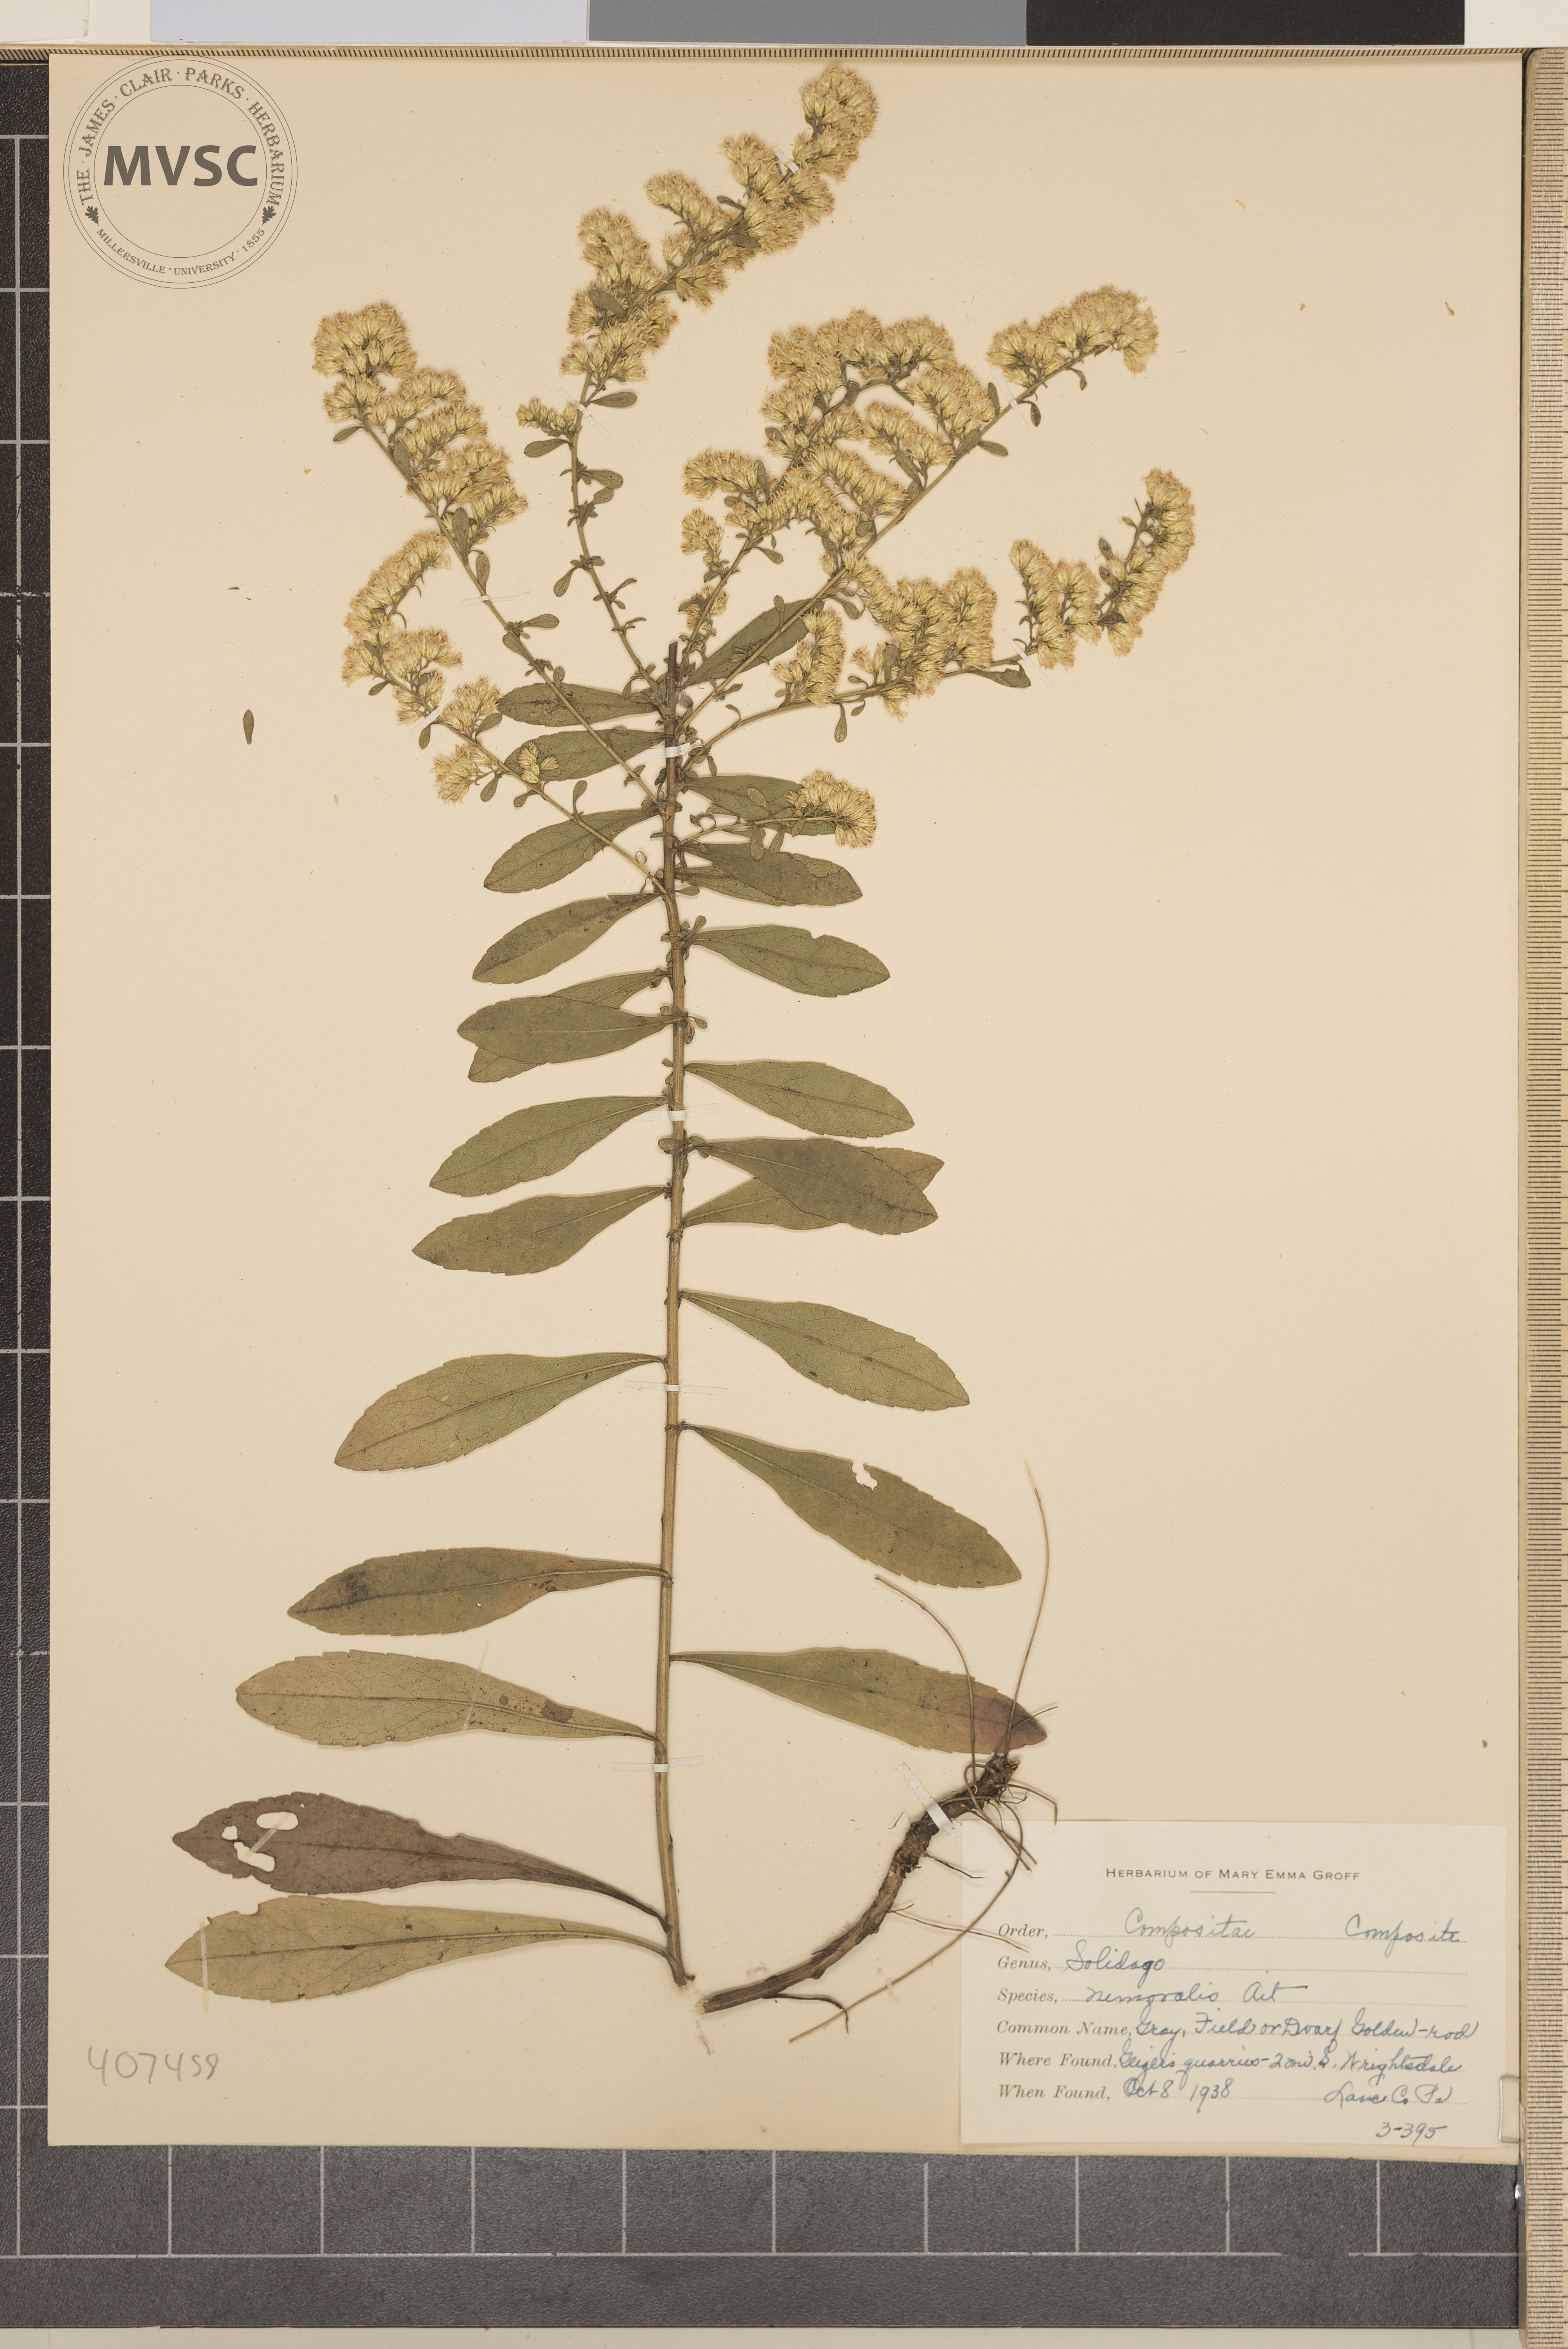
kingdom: Plantae
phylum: Tracheophyta
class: Magnoliopsida
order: Asterales
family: Asteraceae
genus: Solidago
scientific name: Solidago nemoralis
